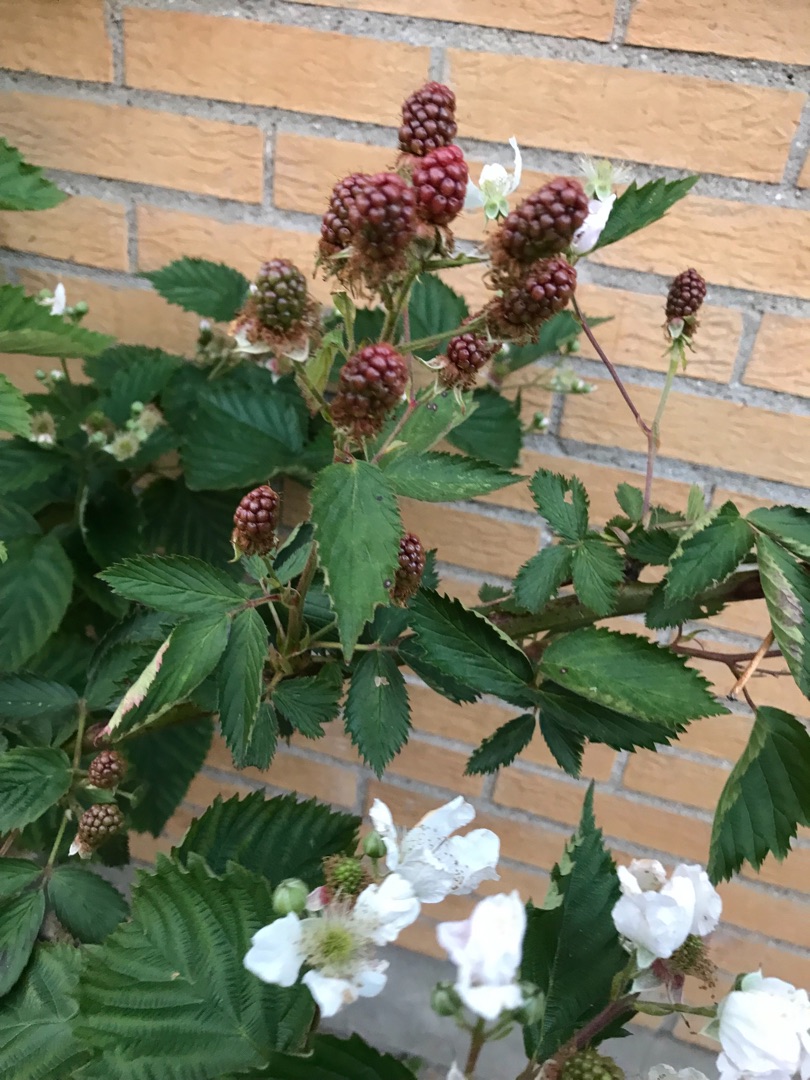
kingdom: Plantae
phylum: Tracheophyta
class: Magnoliopsida
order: Rosales
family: Rosaceae
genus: Rubus
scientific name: Rubus
